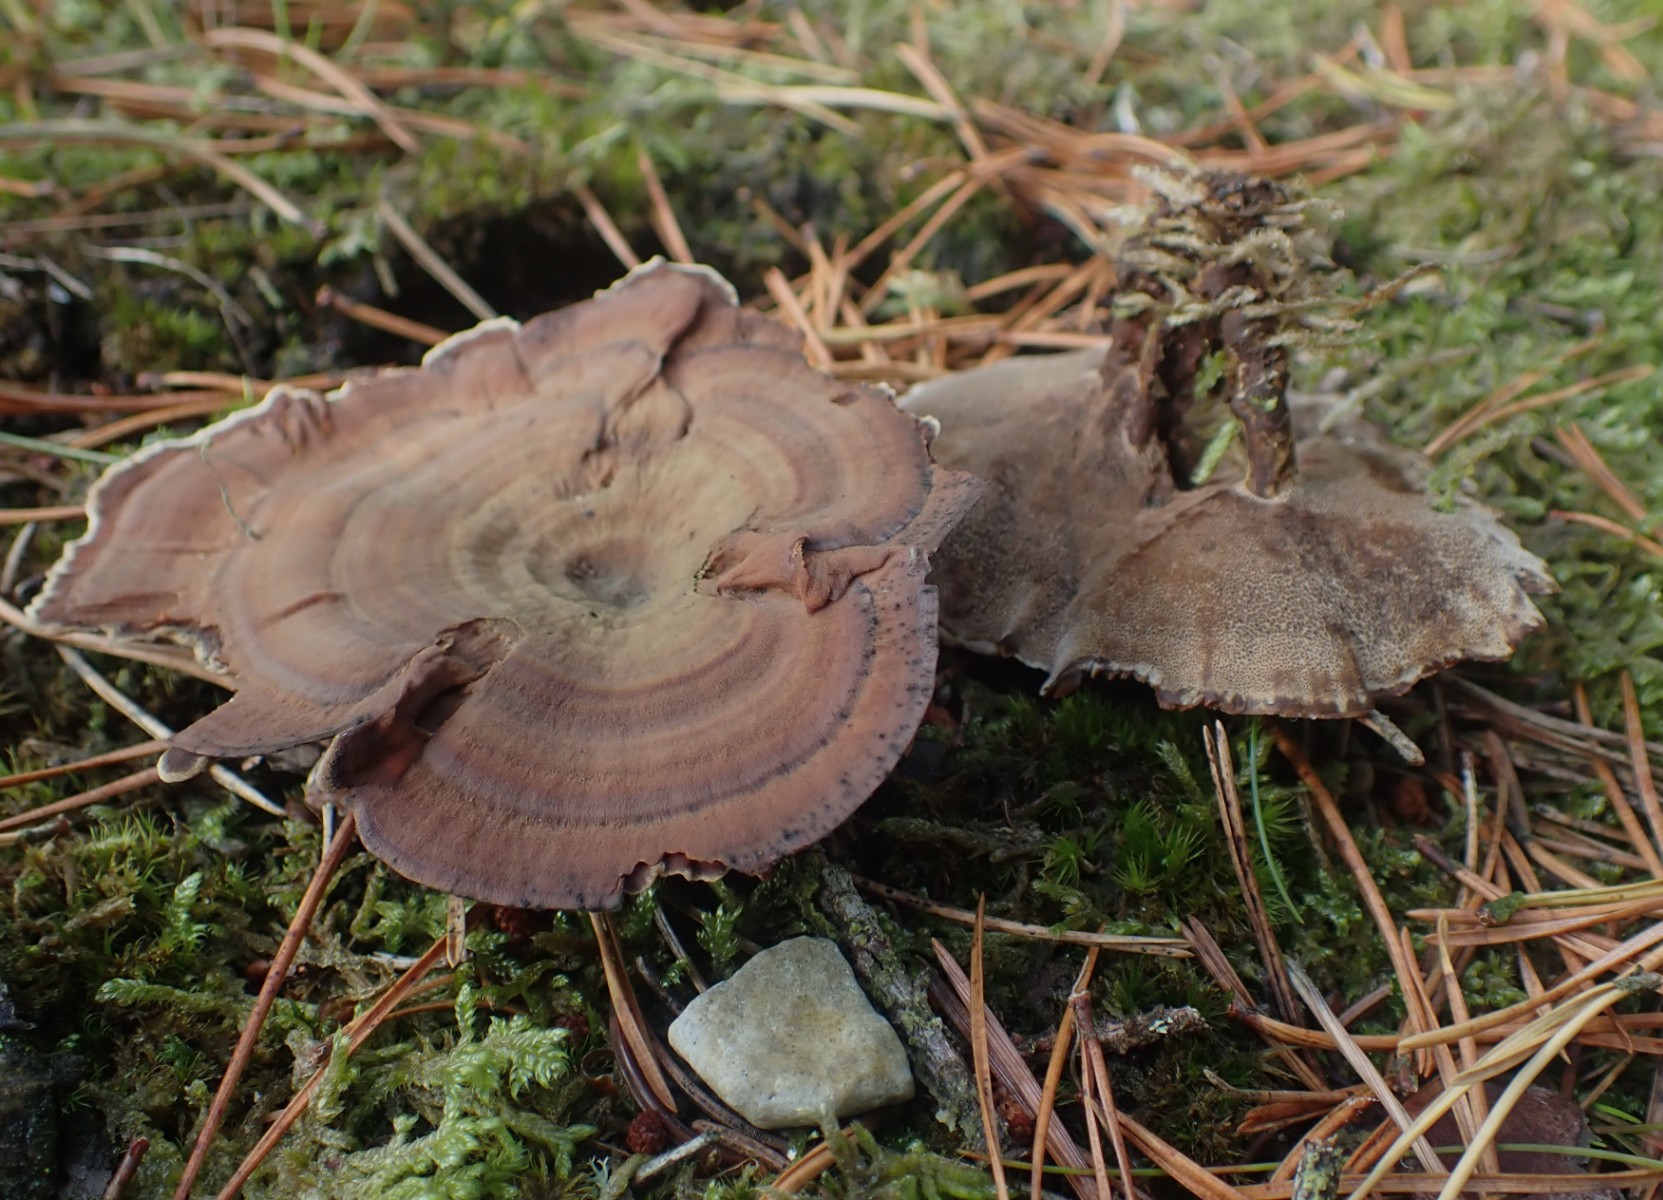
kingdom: Fungi
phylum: Basidiomycota
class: Agaricomycetes
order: Hymenochaetales
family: Hymenochaetaceae
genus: Coltricia
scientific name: Coltricia perennis
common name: almindelig sandporesvamp
